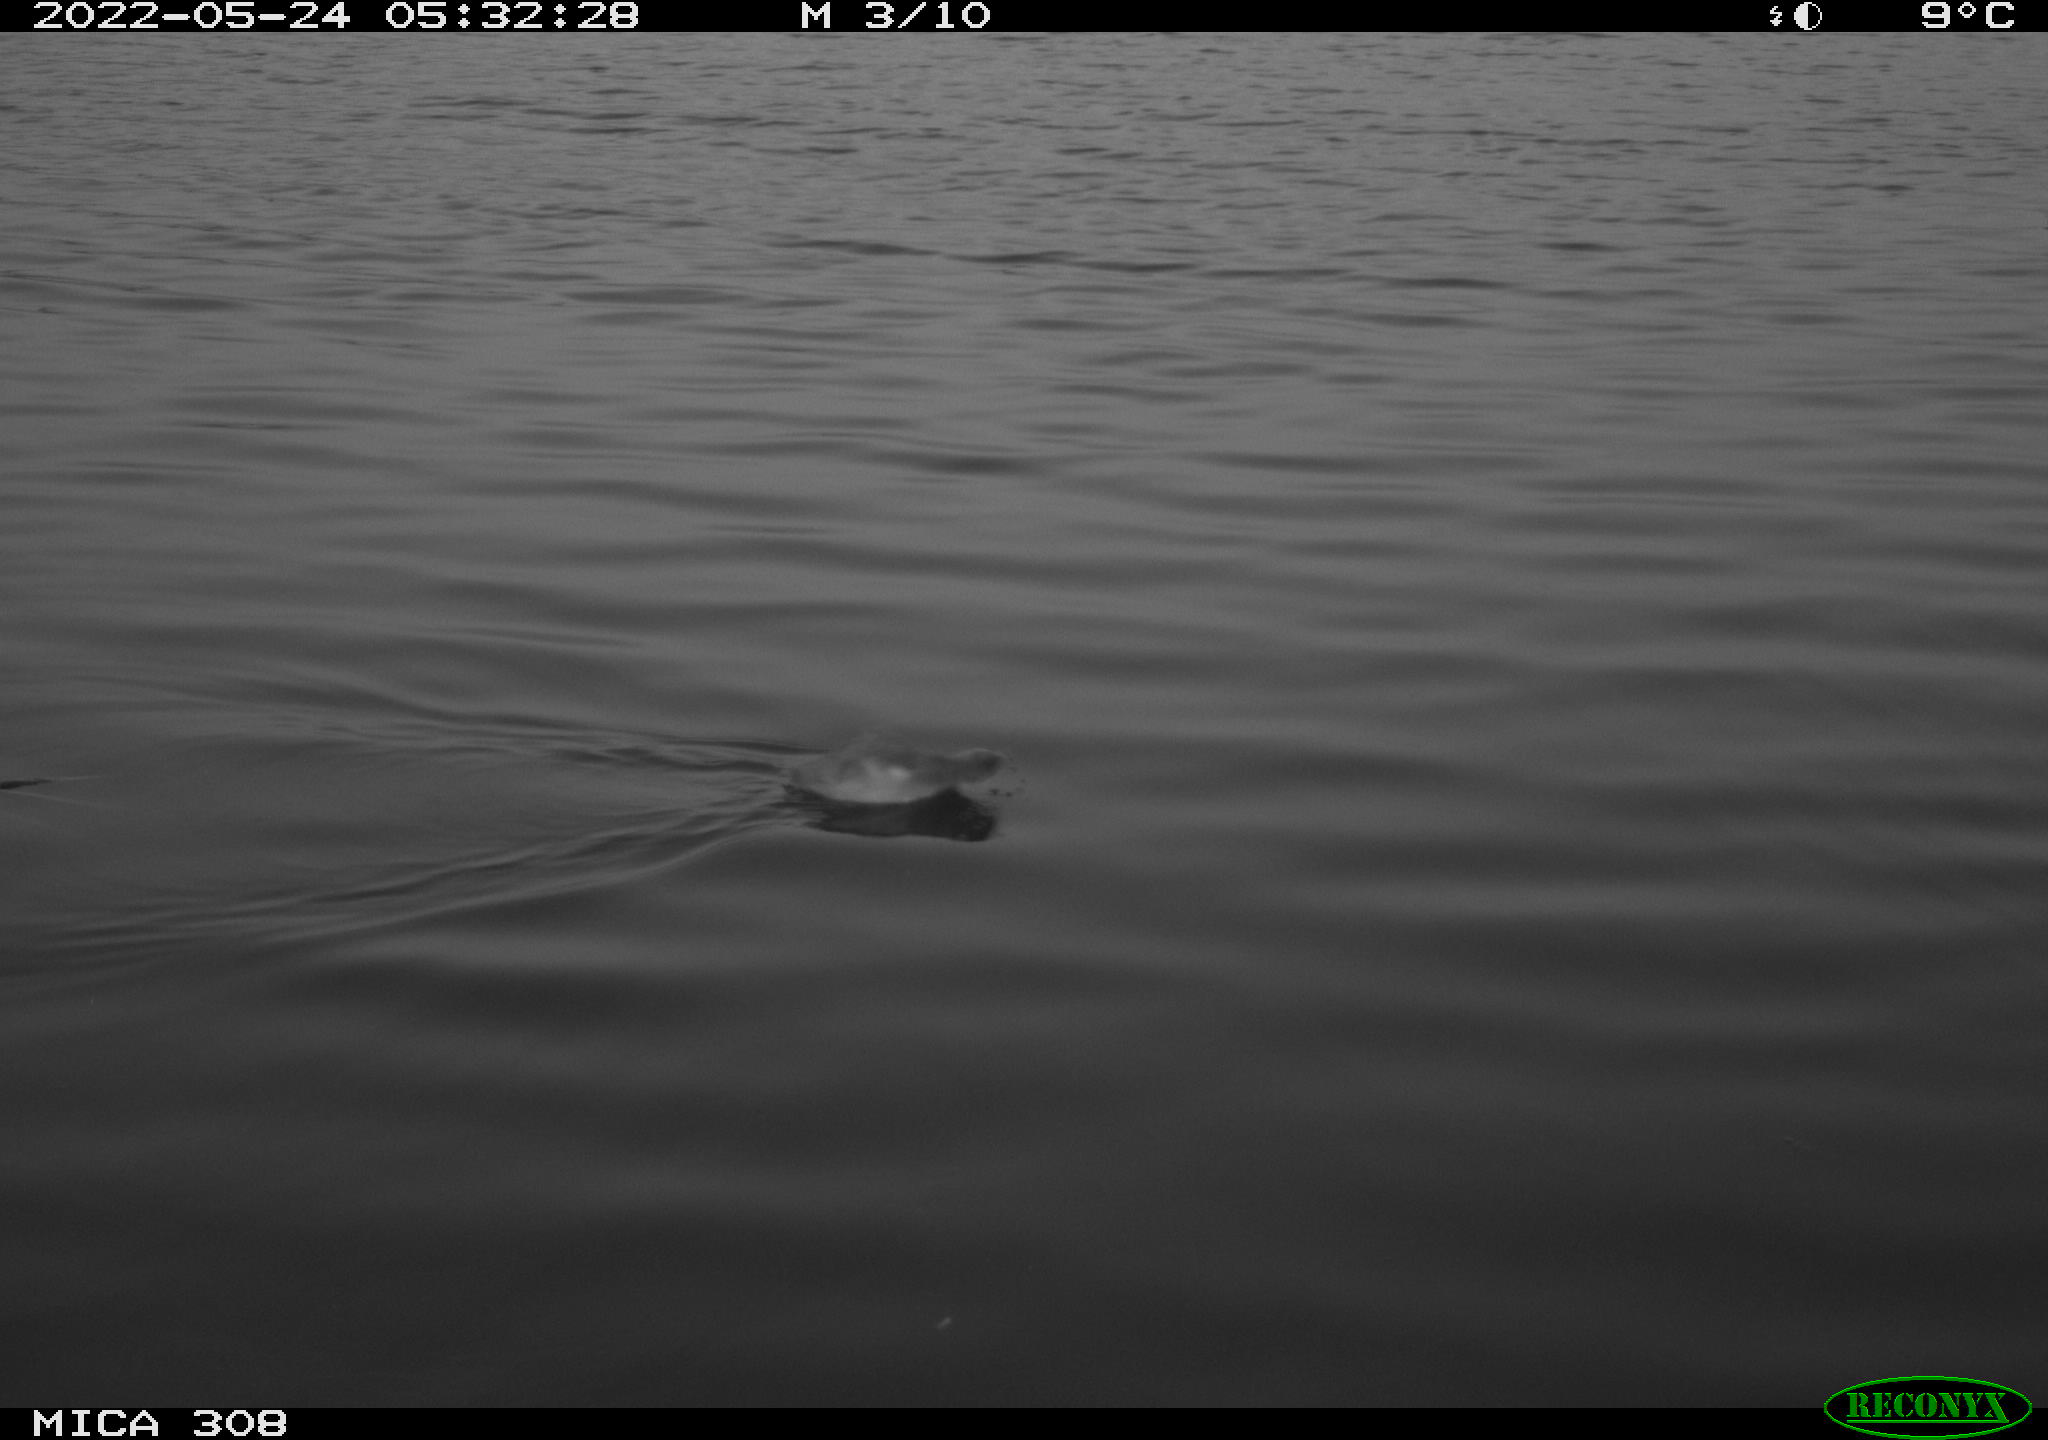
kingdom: Animalia
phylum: Chordata
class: Aves
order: Anseriformes
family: Anatidae
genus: Anas
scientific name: Anas platyrhynchos
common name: Mallard
